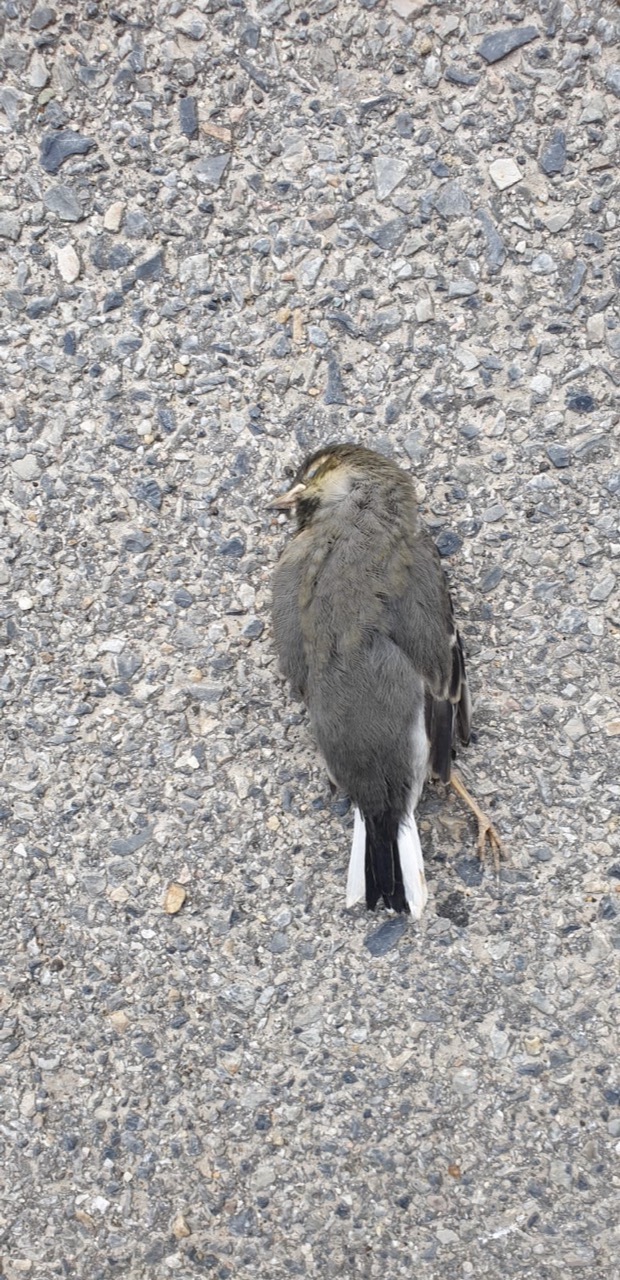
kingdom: Animalia
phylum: Chordata
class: Aves
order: Passeriformes
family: Motacillidae
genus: Motacilla
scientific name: Motacilla alba
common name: White wagtail
